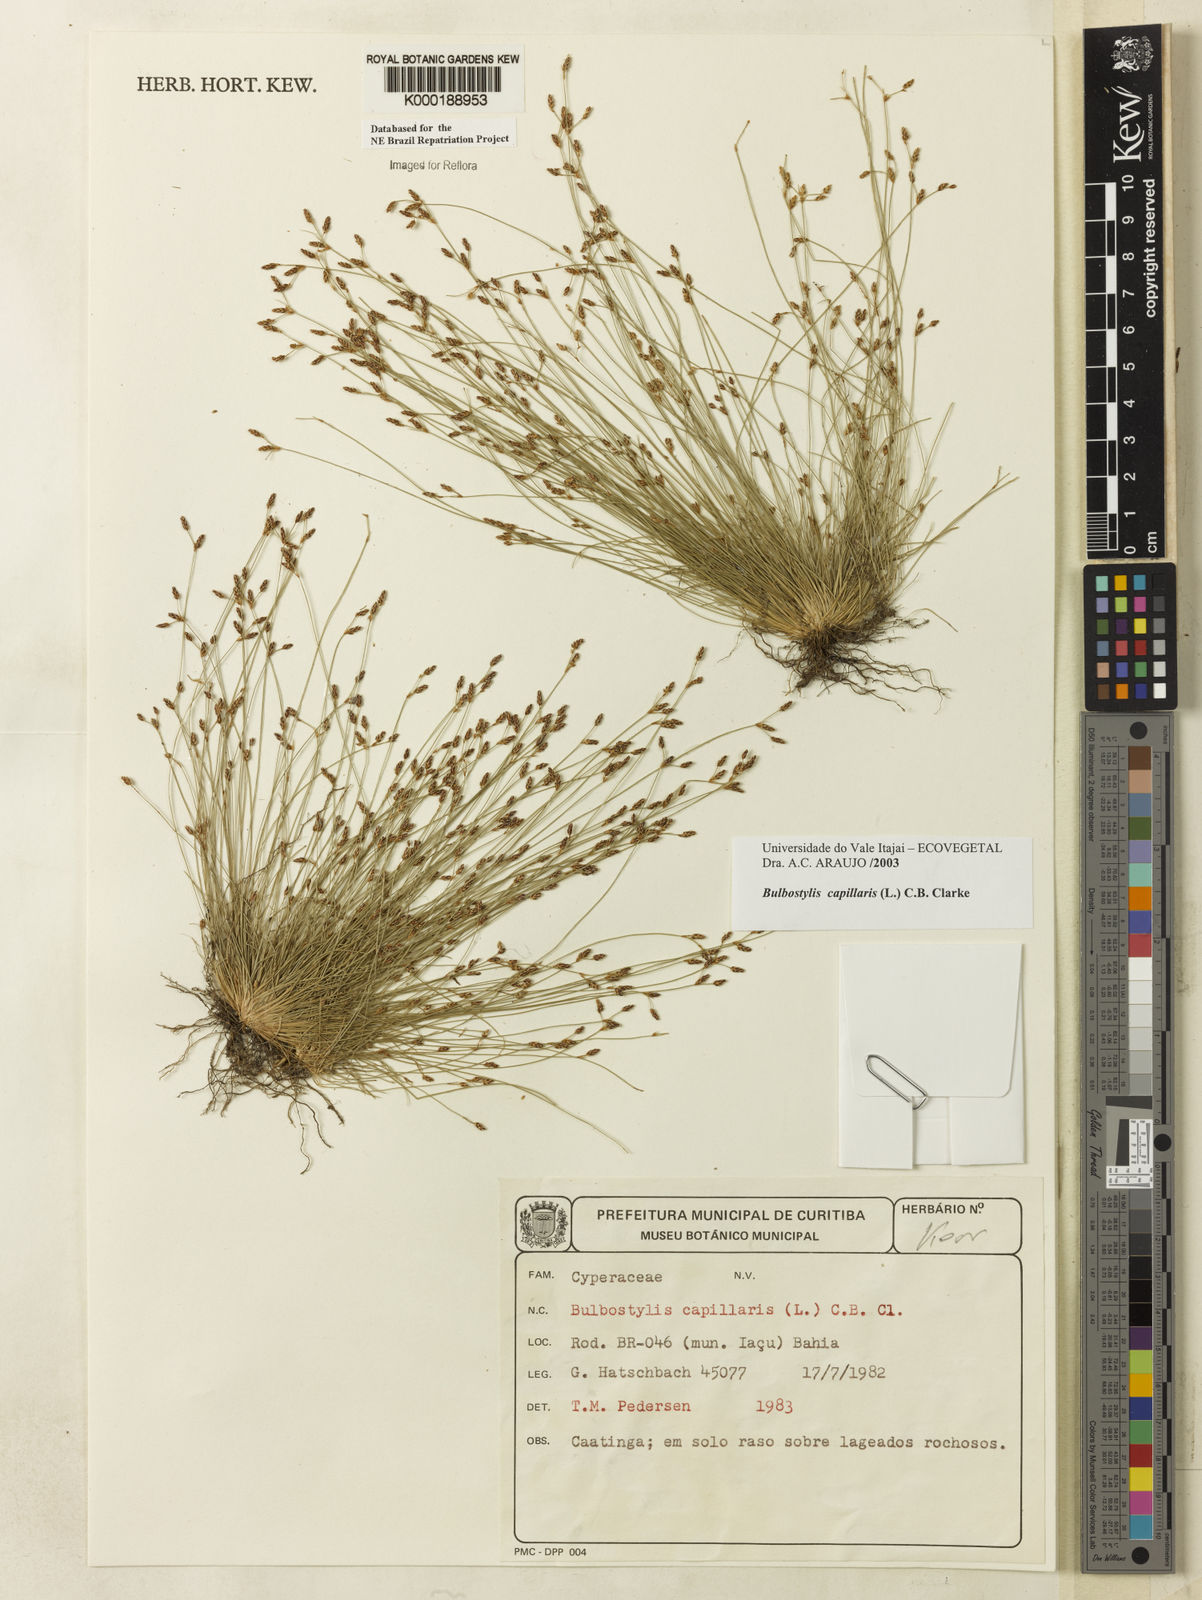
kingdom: Plantae
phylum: Tracheophyta
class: Liliopsida
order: Poales
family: Cyperaceae
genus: Bulbostylis
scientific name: Bulbostylis capillaris
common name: Densetuft hairsedge
